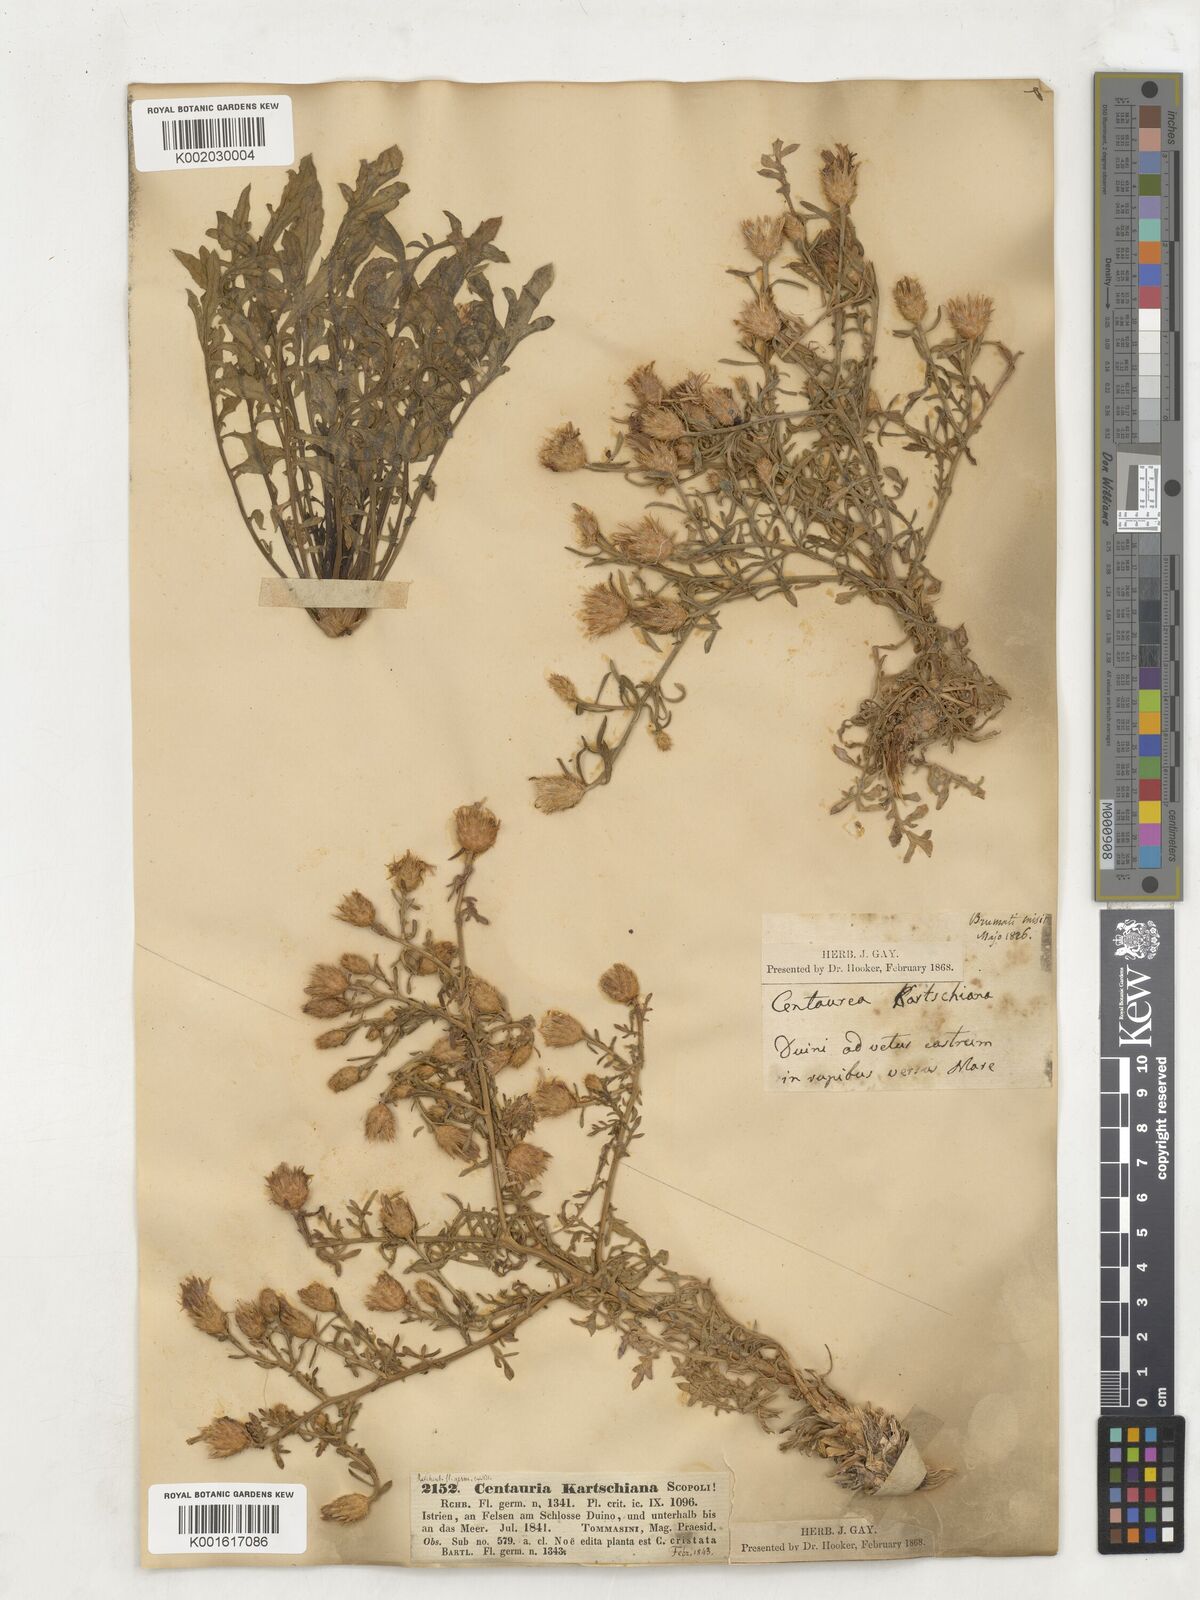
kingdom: Plantae
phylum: Tracheophyta
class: Magnoliopsida
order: Asterales
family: Asteraceae
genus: Centaurea
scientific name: Centaurea kartschiana
